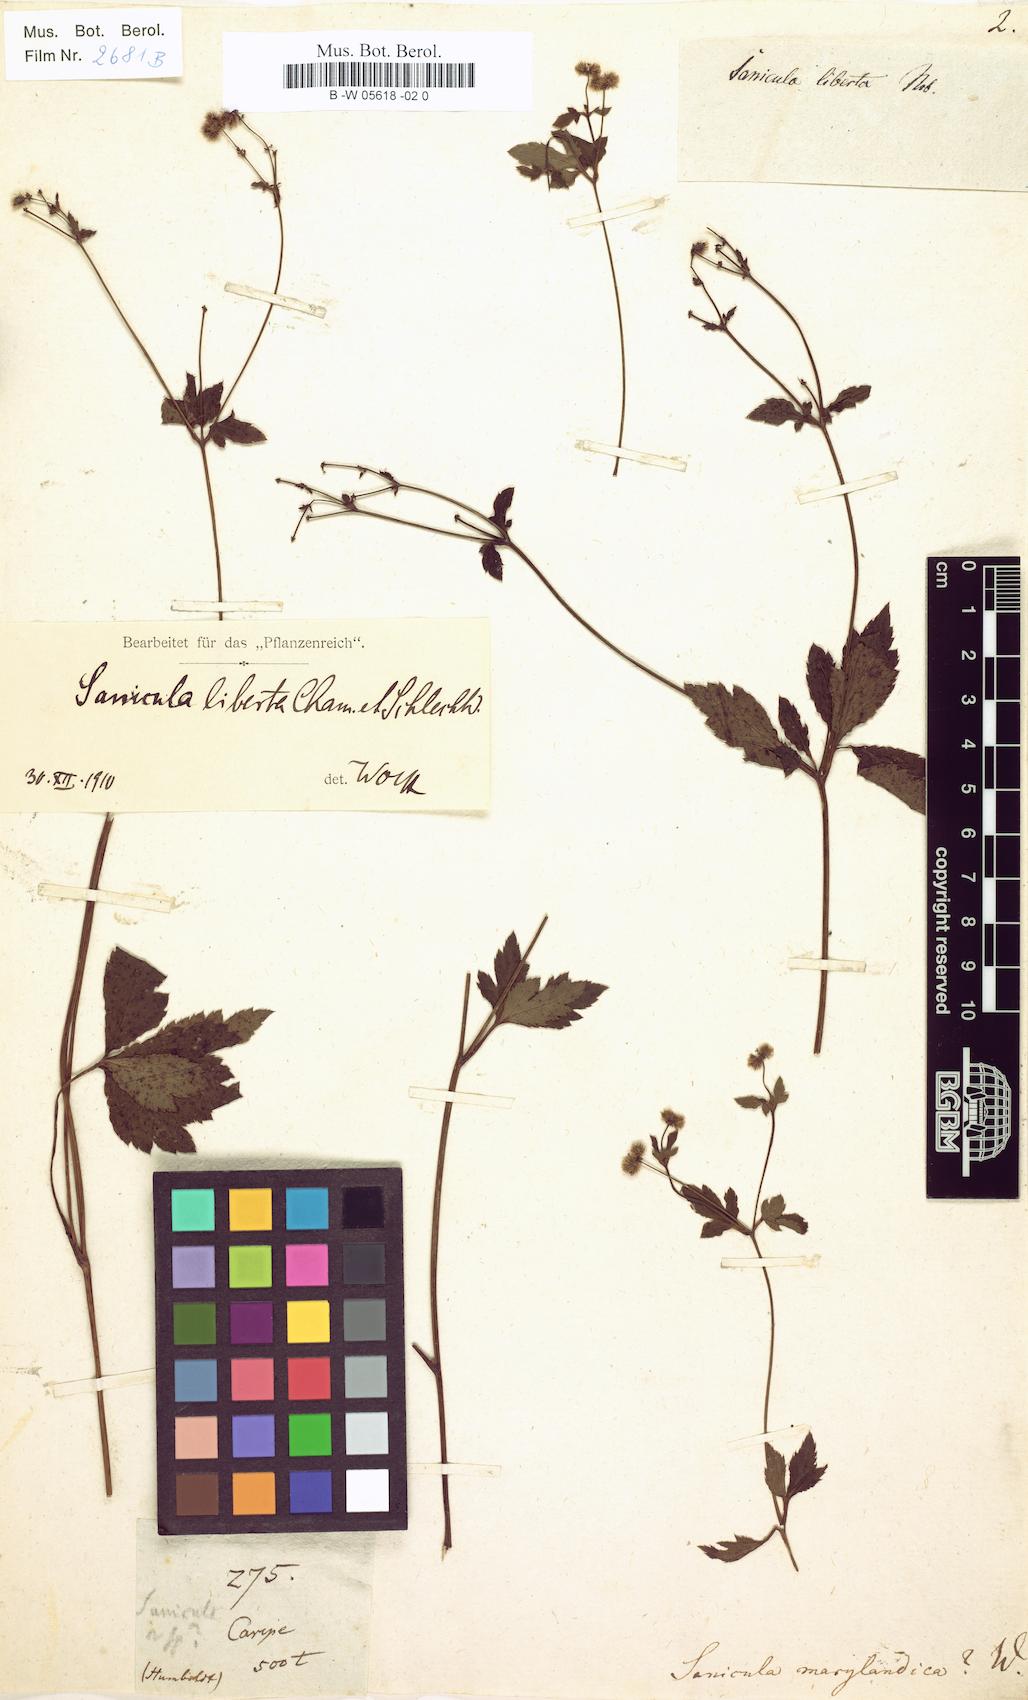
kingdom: Plantae
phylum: Tracheophyta
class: Magnoliopsida
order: Apiales
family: Apiaceae
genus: Sanicula
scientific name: Sanicula marilandica
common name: Black snakeroot
